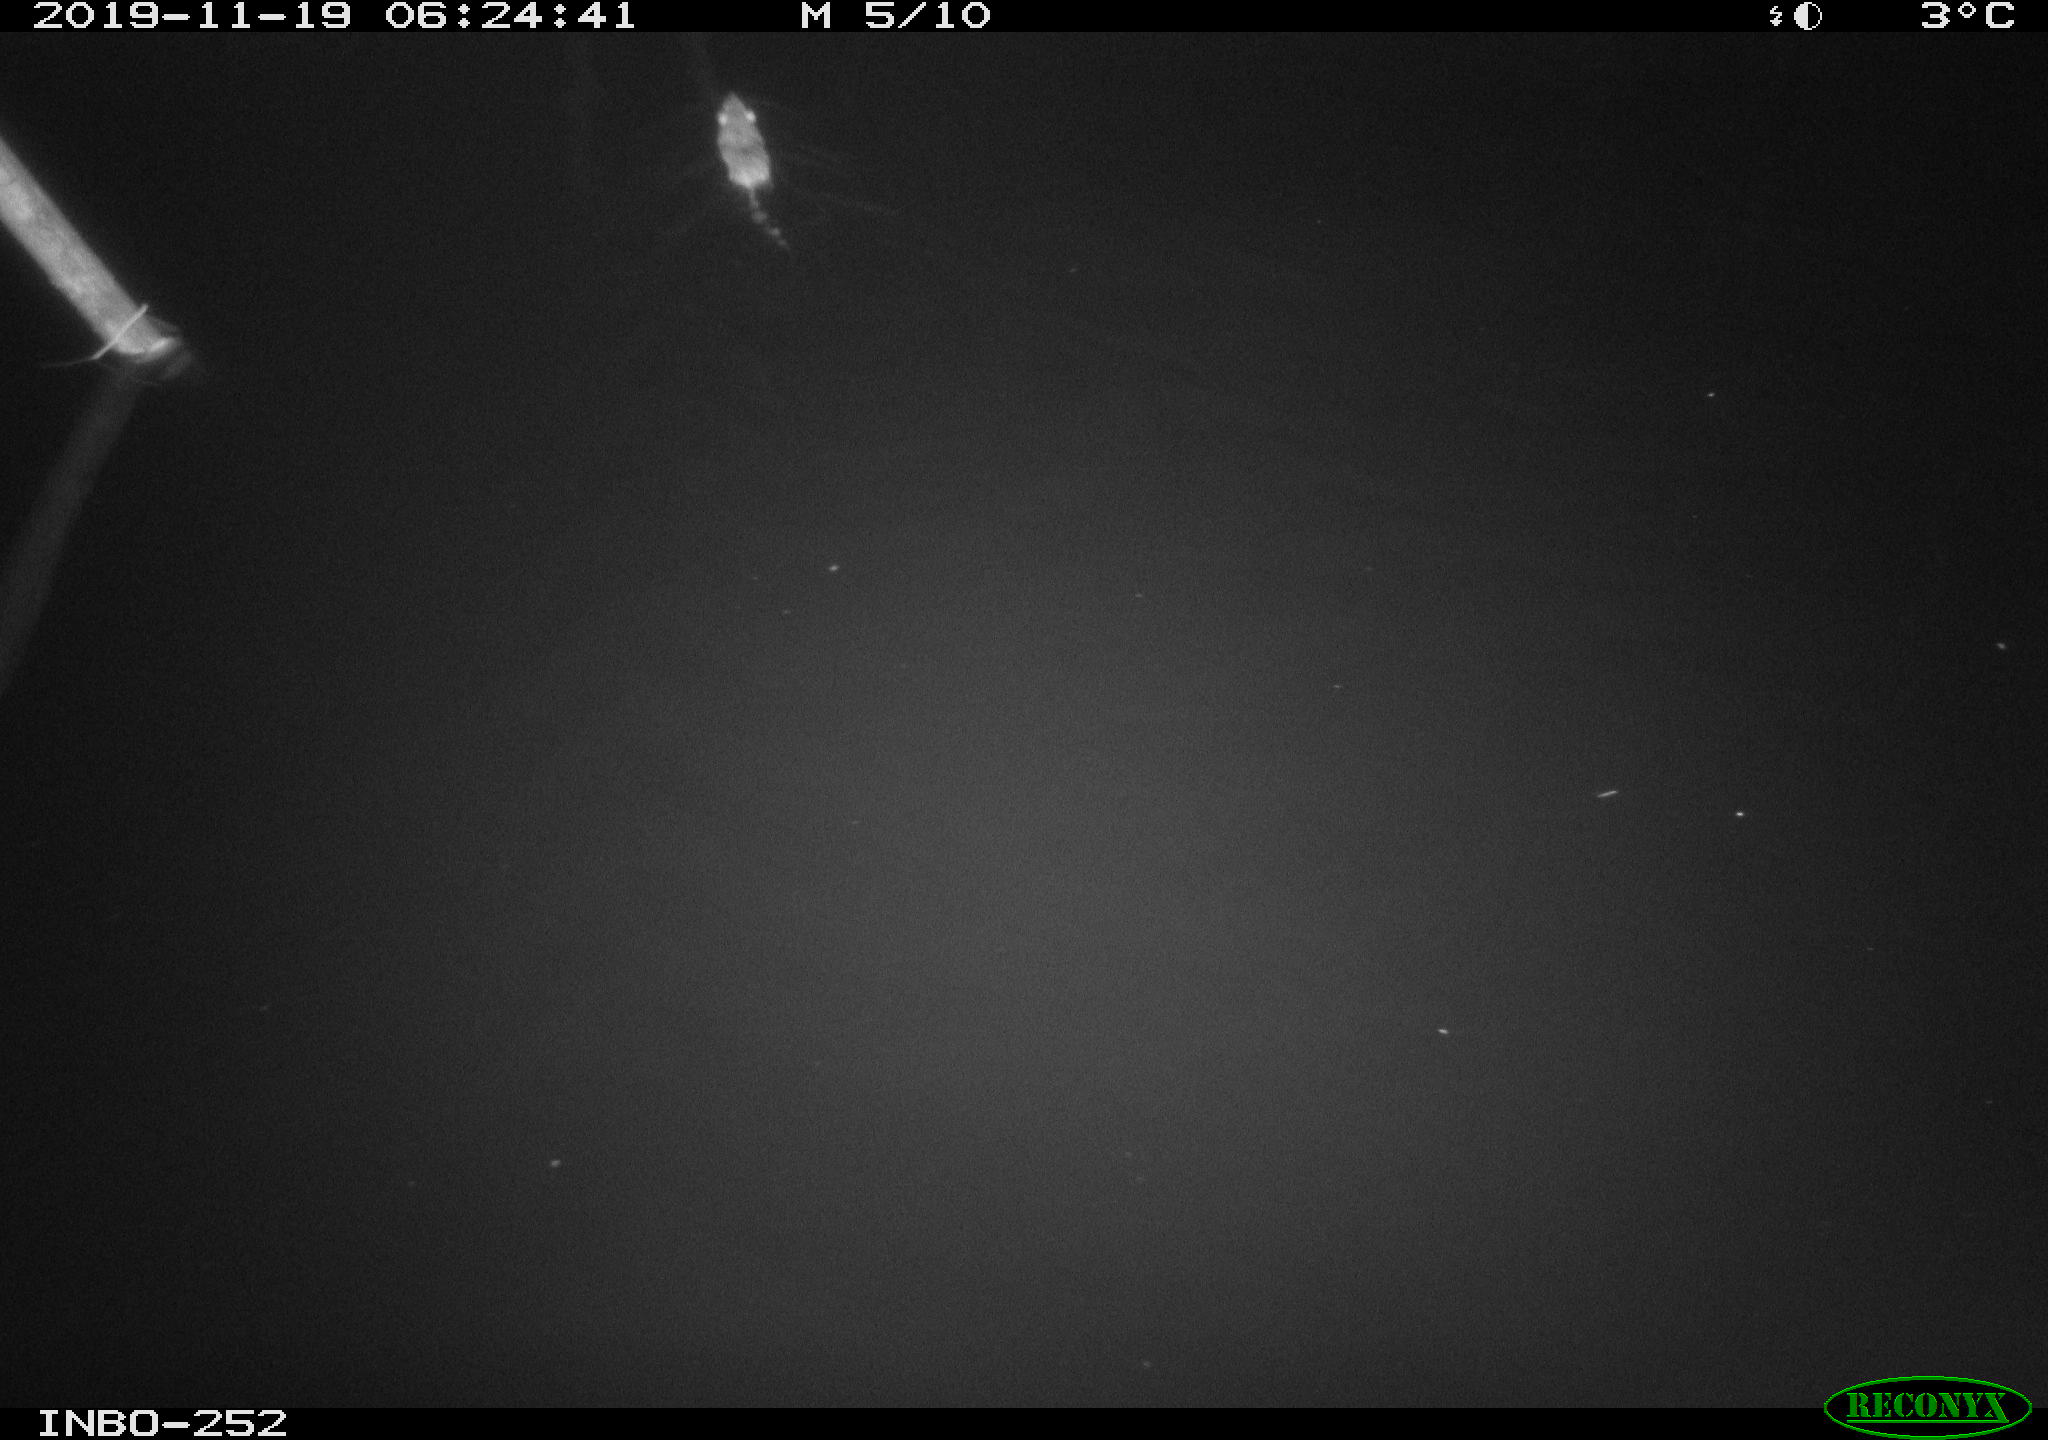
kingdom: Animalia
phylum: Chordata
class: Mammalia
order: Rodentia
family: Muridae
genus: Rattus
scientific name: Rattus norvegicus
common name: Brown rat
